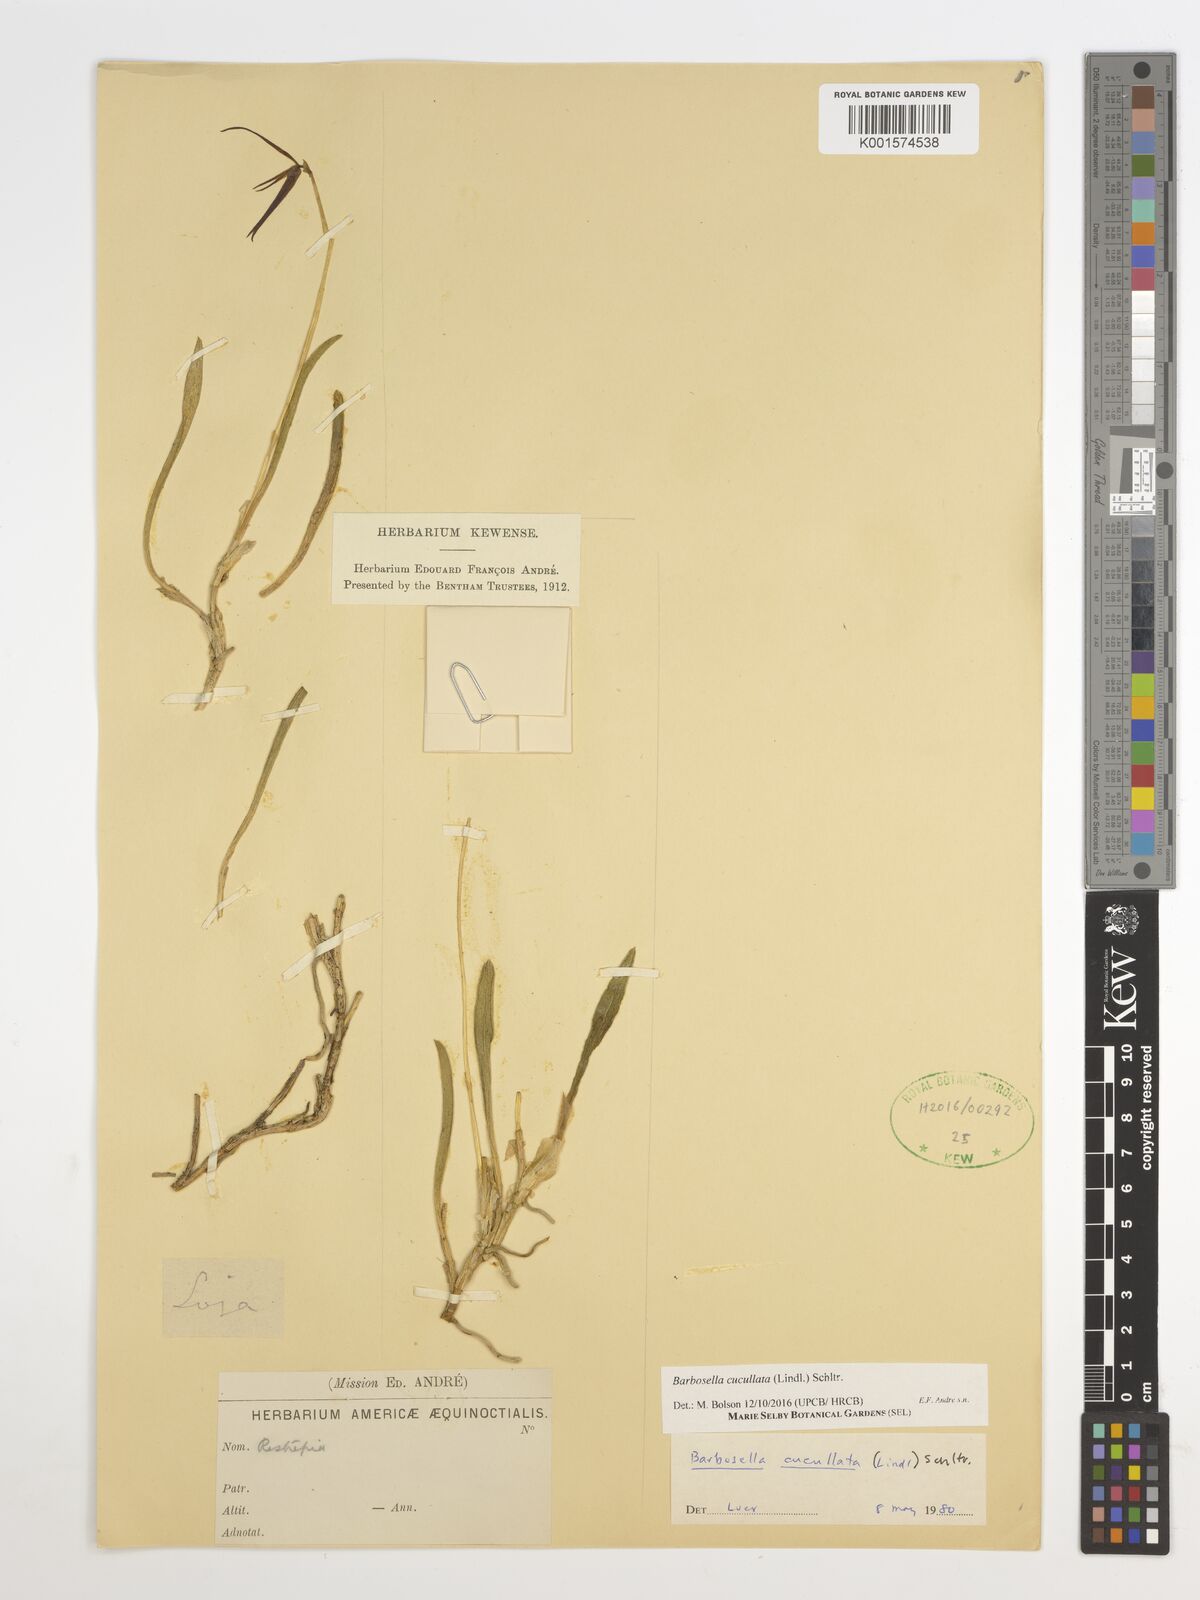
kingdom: Plantae
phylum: Tracheophyta
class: Liliopsida
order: Asparagales
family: Orchidaceae
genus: Barbosella
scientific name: Barbosella cucullata
